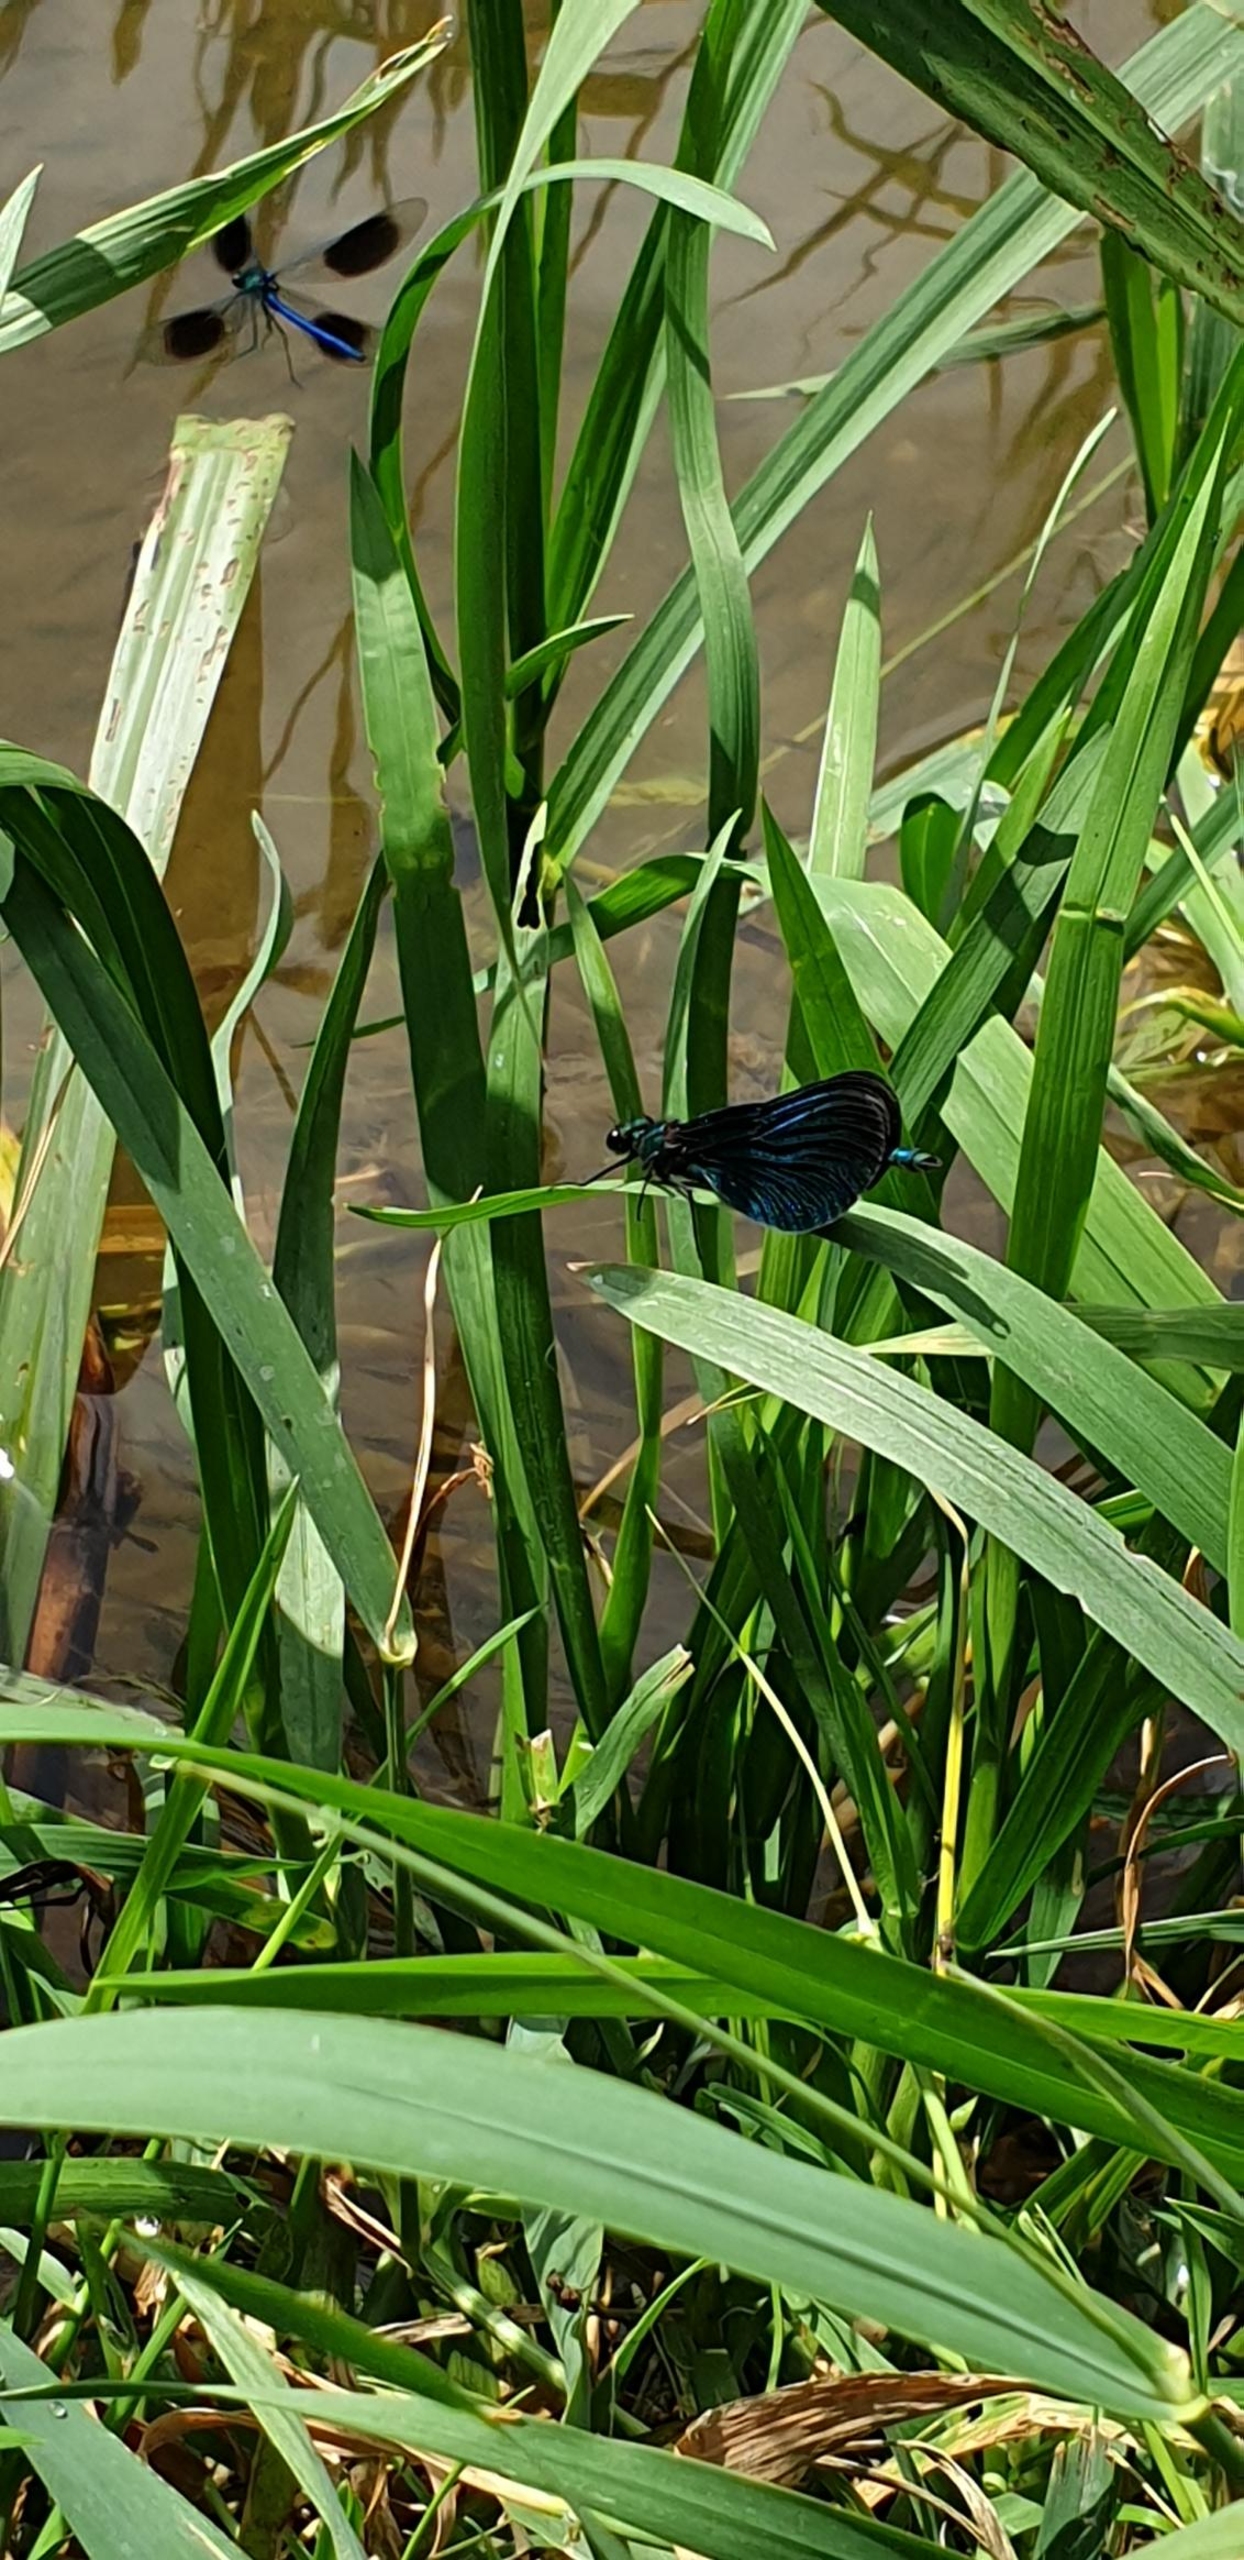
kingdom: Animalia
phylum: Arthropoda
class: Insecta
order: Odonata
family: Calopterygidae
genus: Calopteryx
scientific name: Calopteryx virgo
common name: Blåvinget pragtvandnymfe
